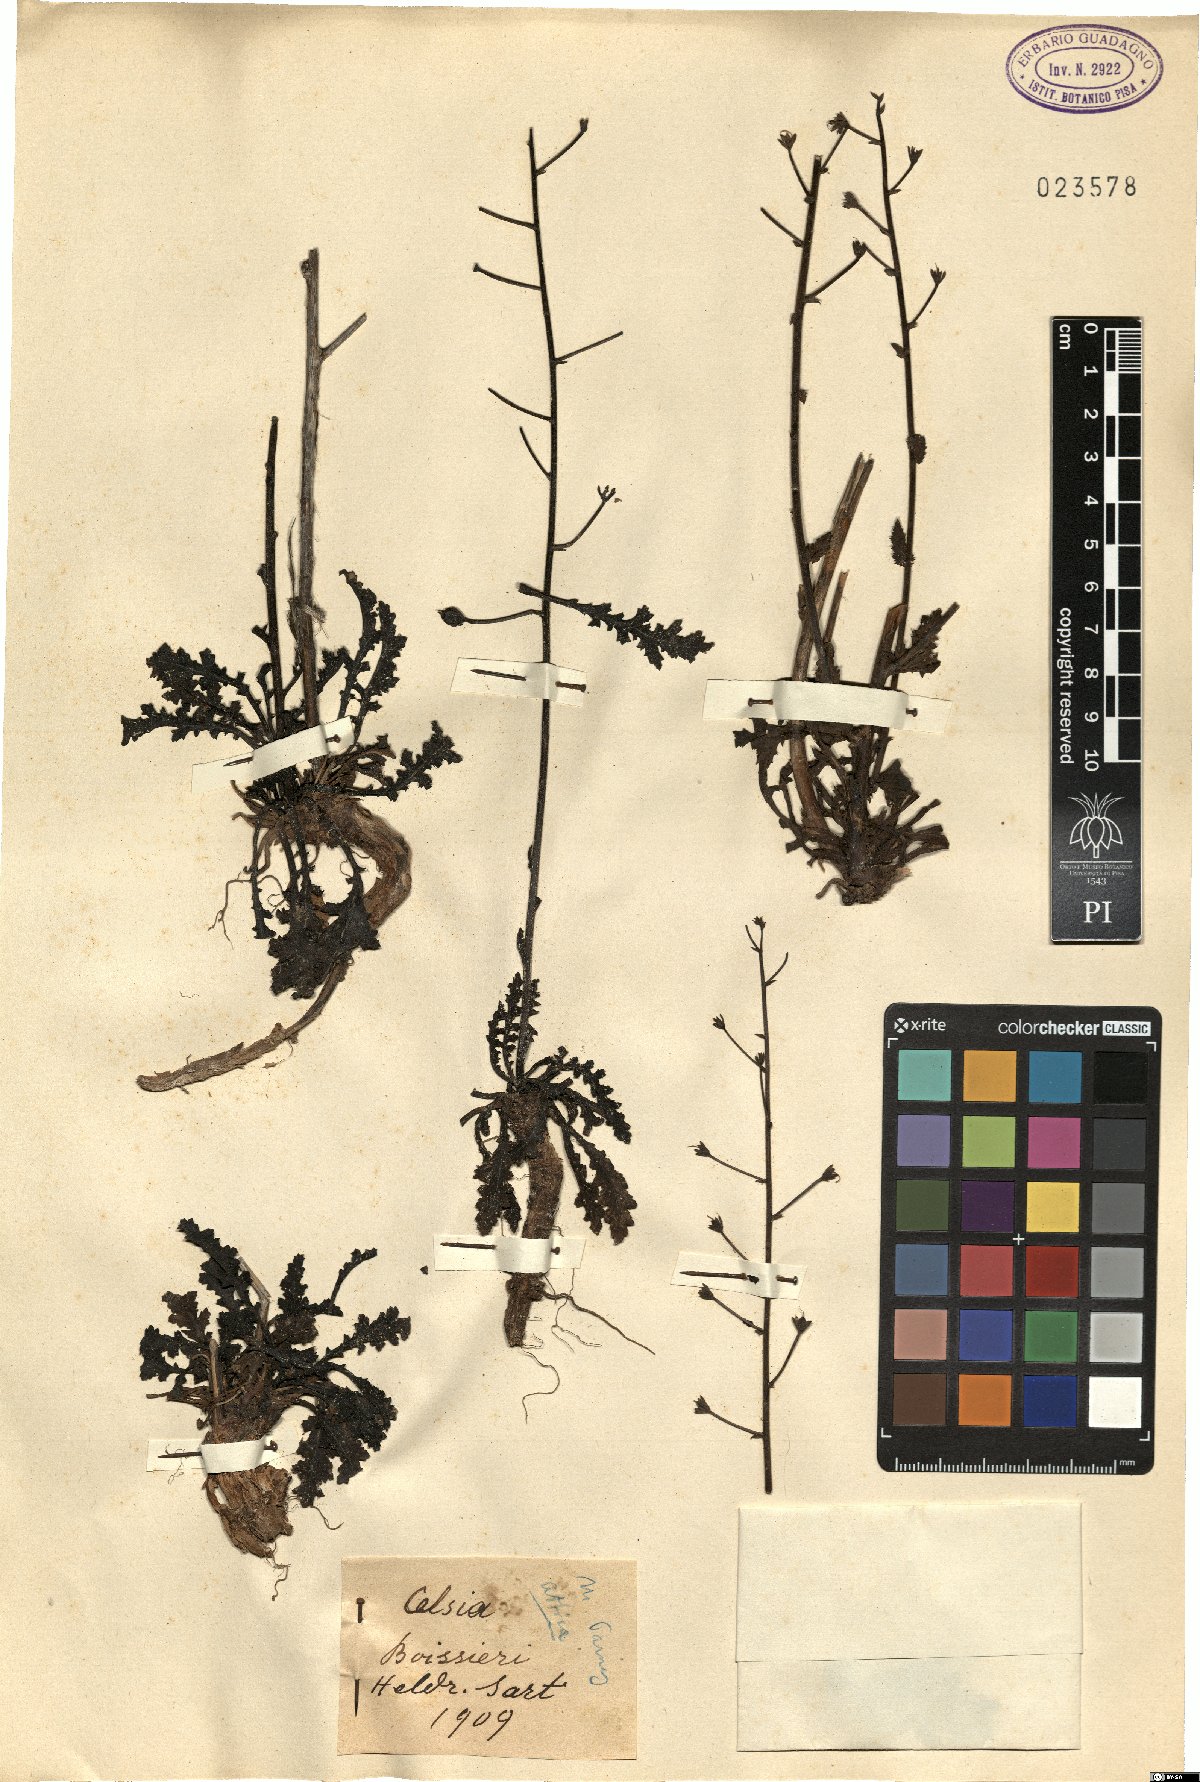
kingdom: Plantae
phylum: Tracheophyta
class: Magnoliopsida
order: Lamiales
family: Scrophulariaceae
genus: Verbascum
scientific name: Verbascum boissieri
